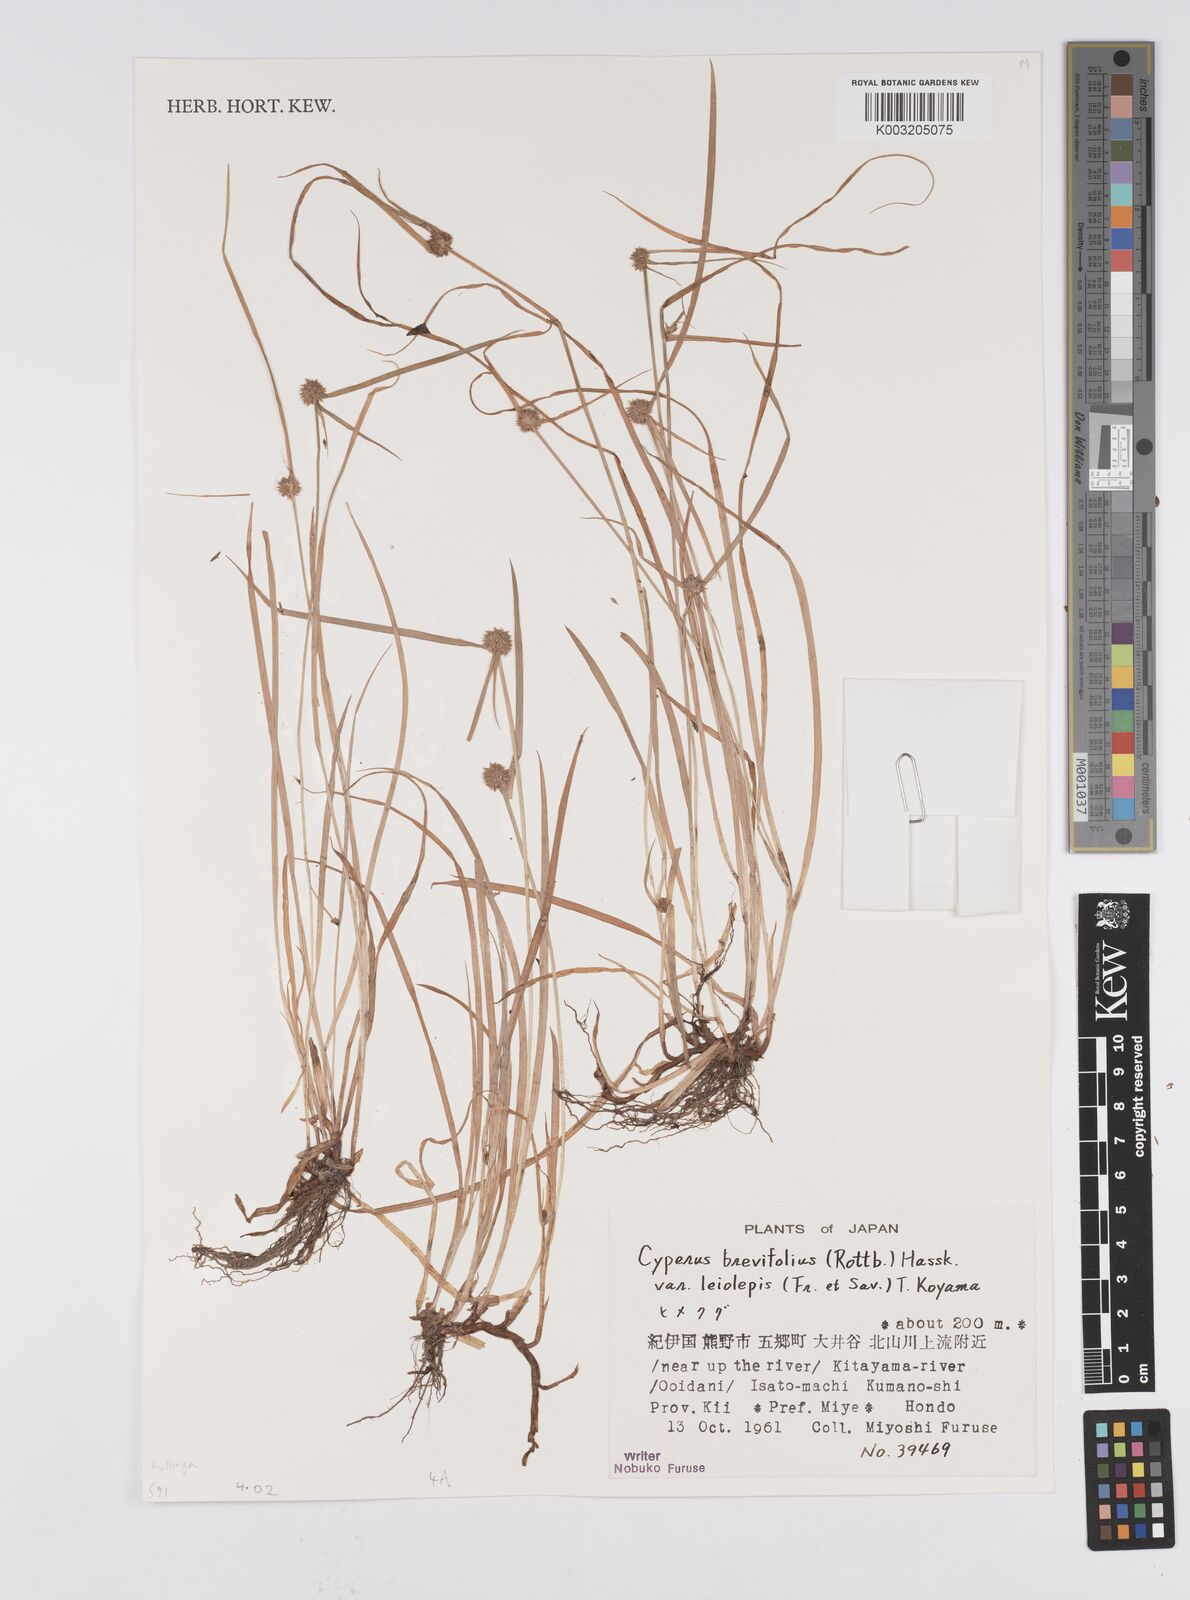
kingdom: Plantae
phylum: Tracheophyta
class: Liliopsida
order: Poales
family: Cyperaceae
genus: Cyperus
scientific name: Cyperus brevifolius
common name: Globe kyllinga
